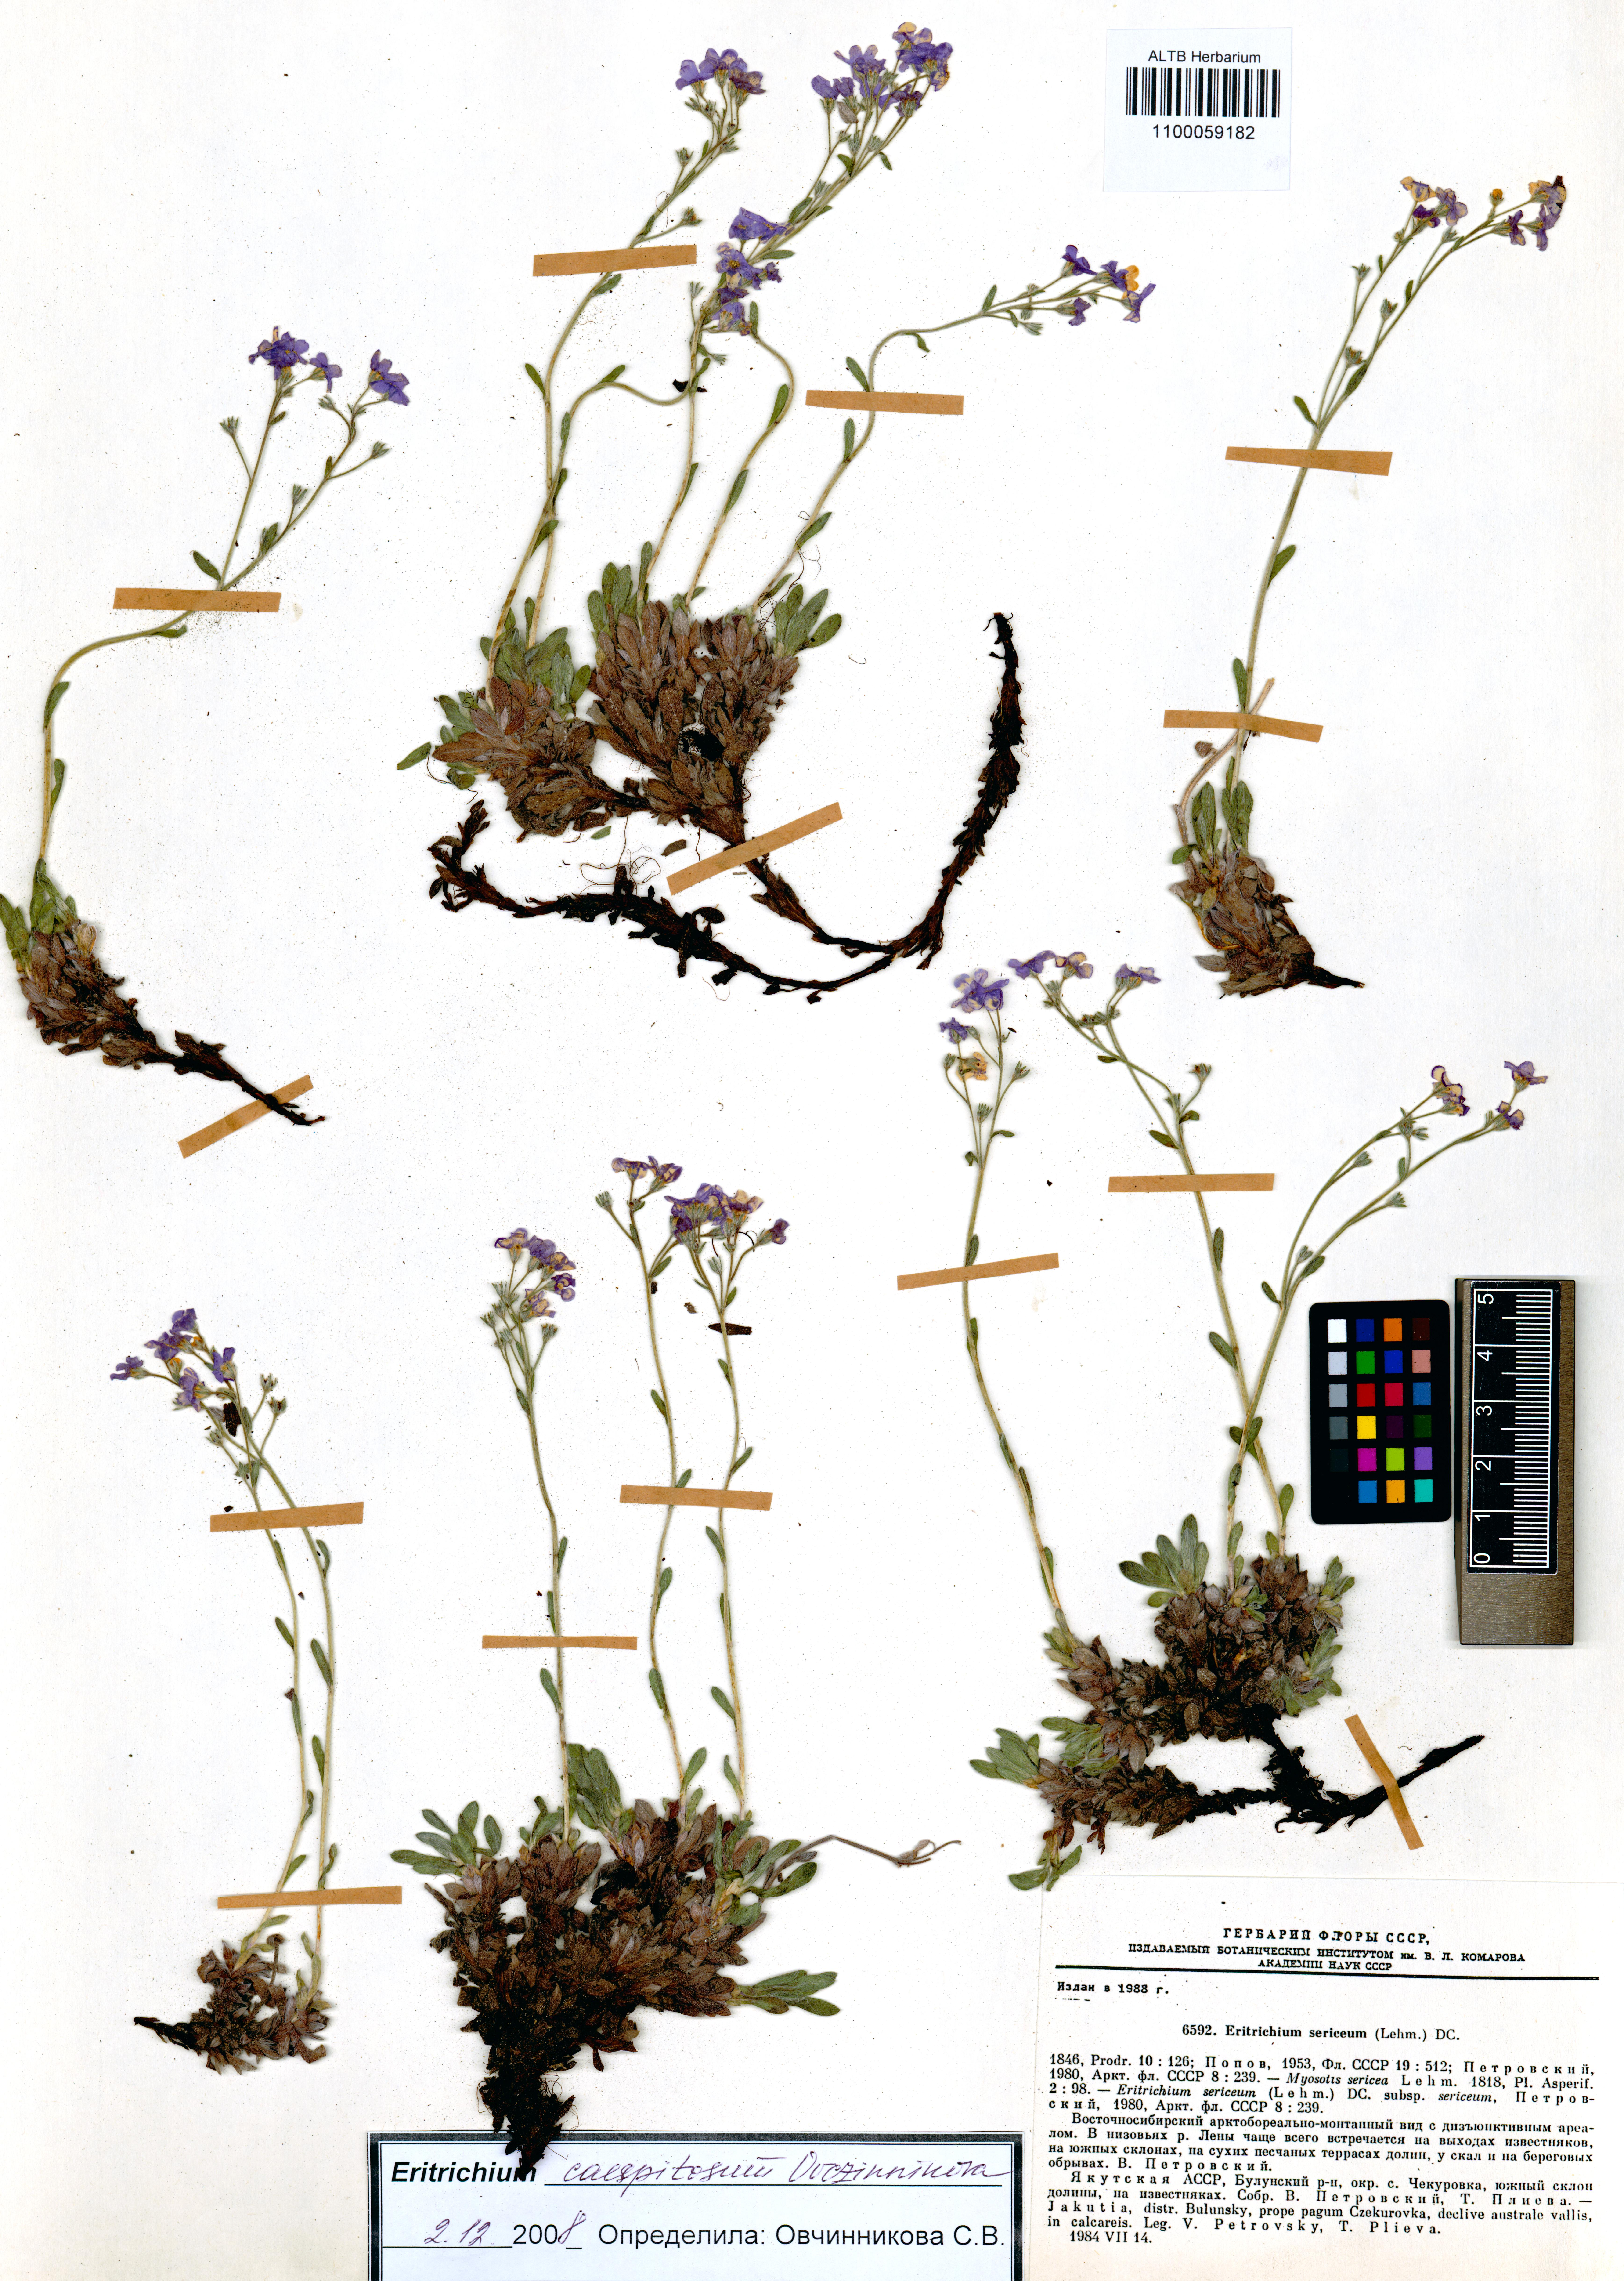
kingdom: Plantae
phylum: Tracheophyta
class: Magnoliopsida
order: Boraginales
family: Boraginaceae
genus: Eritrichium
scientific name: Eritrichium caespitosum
